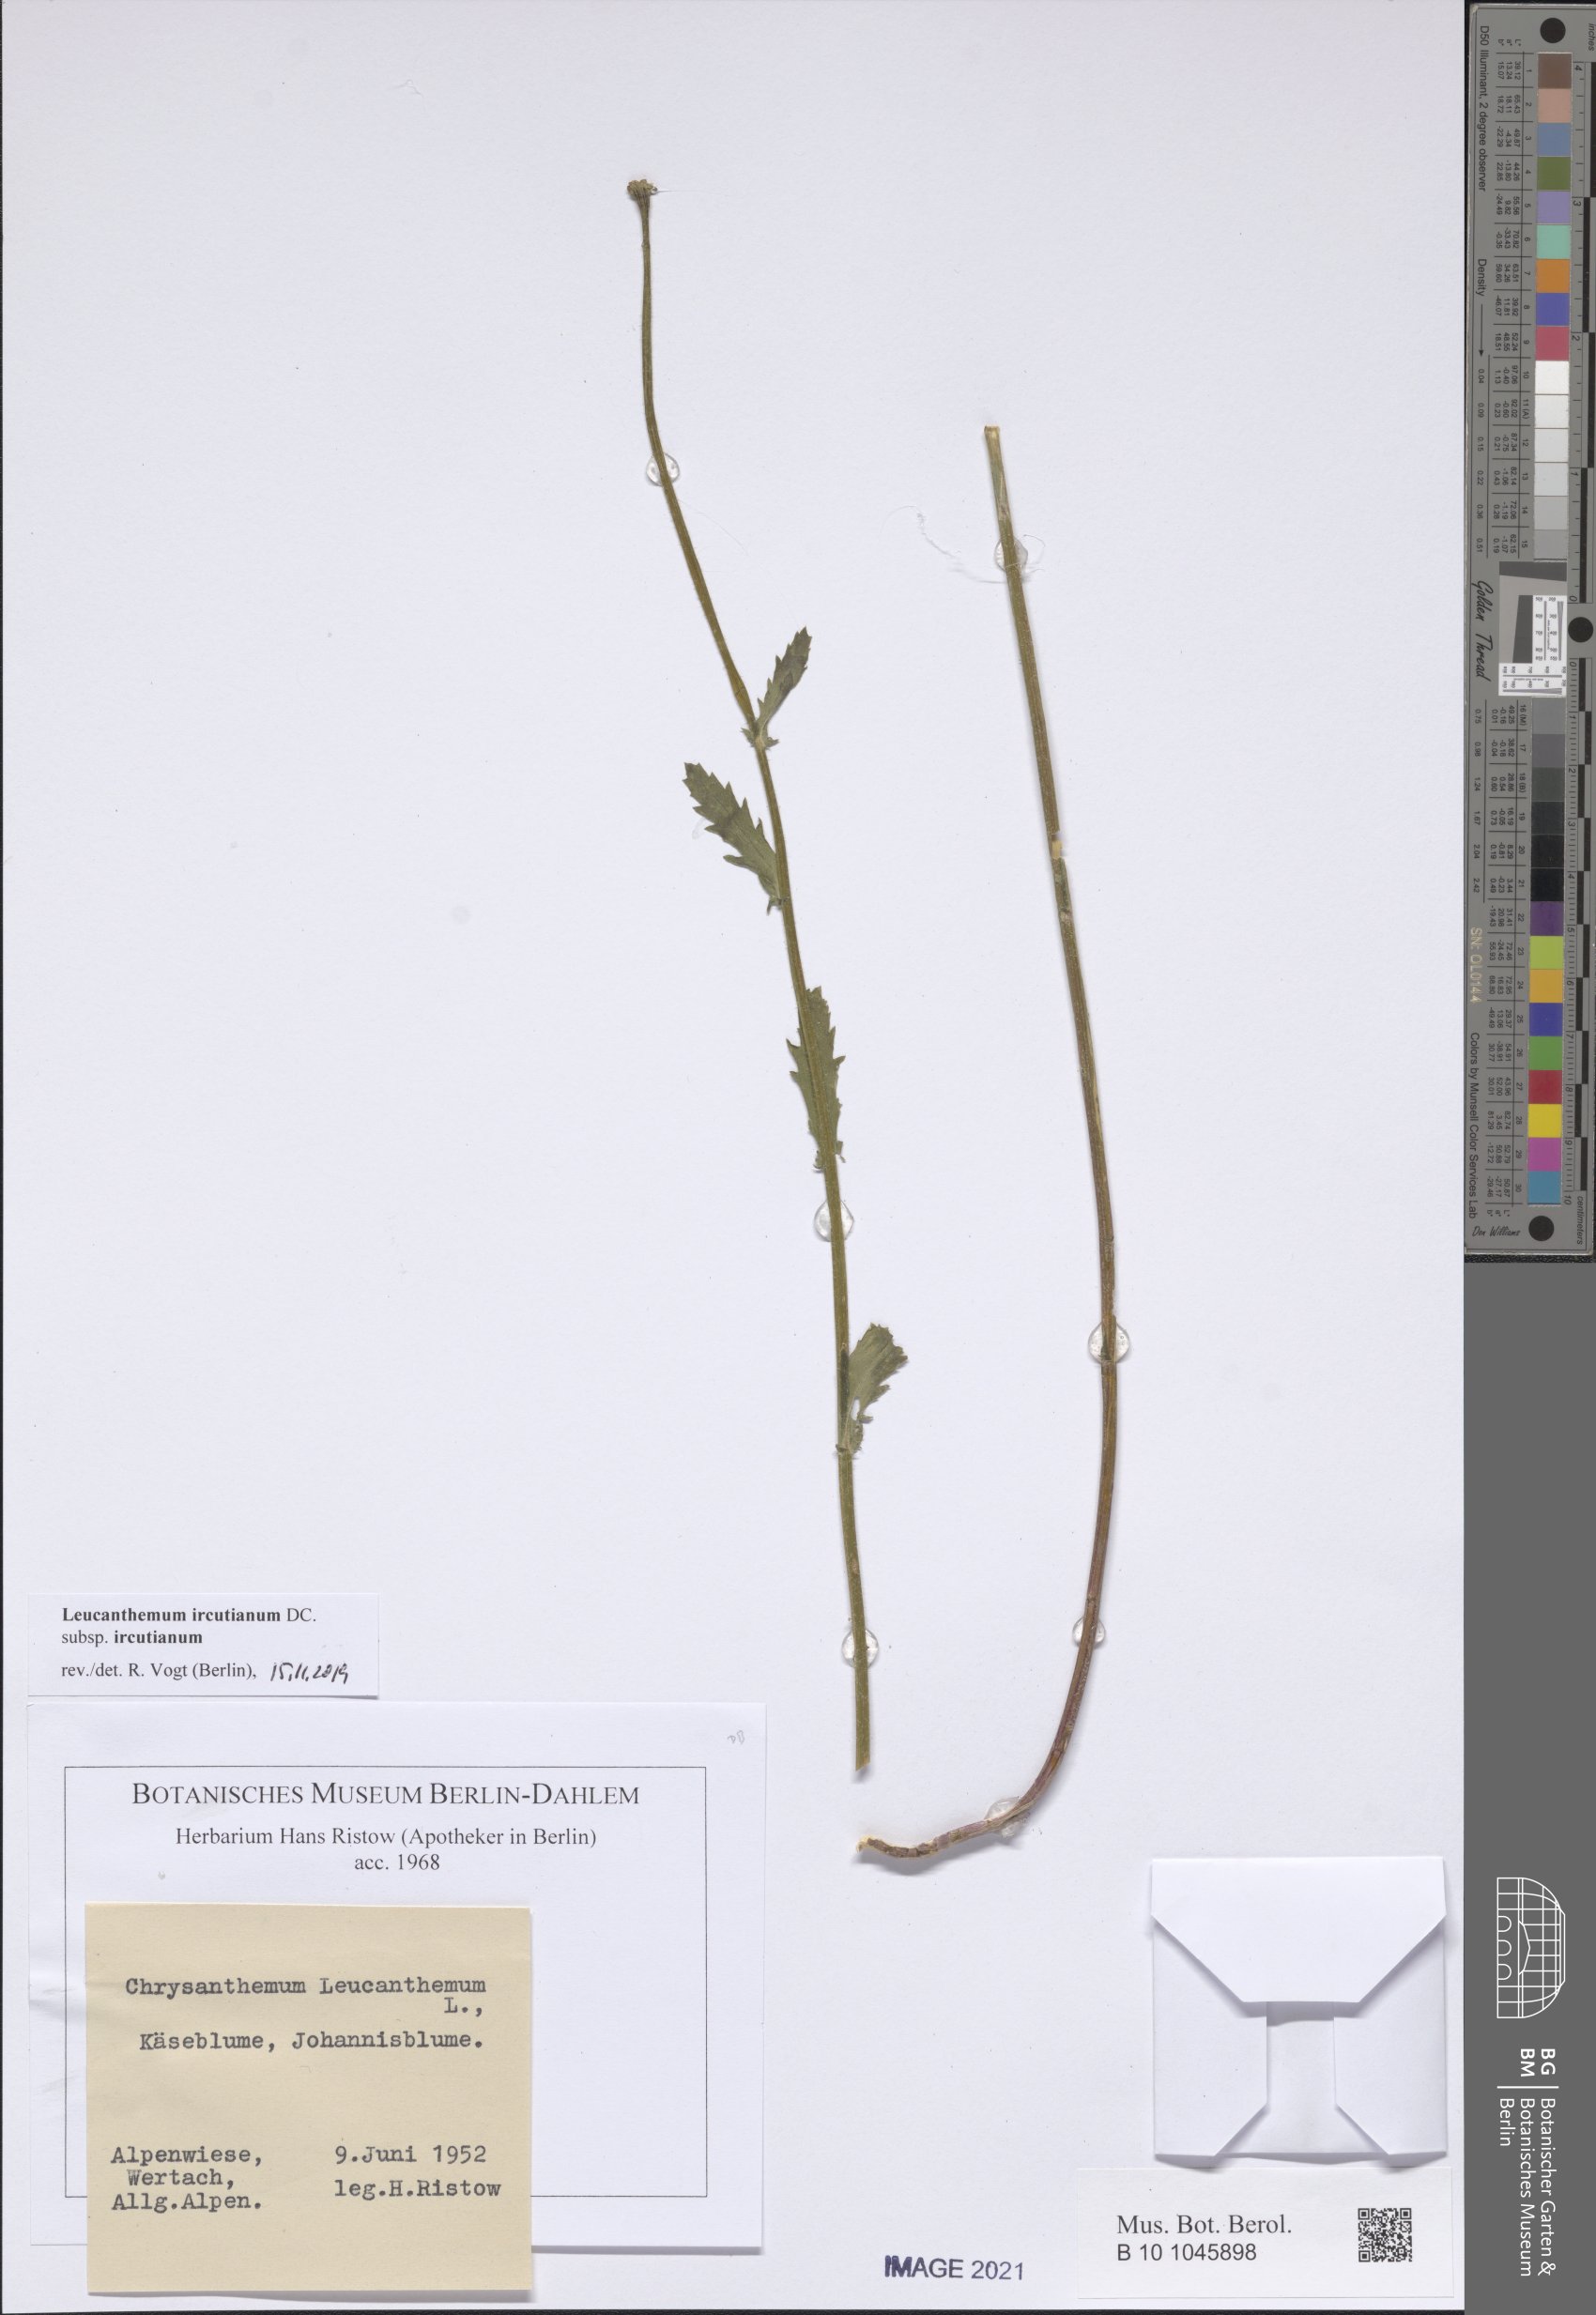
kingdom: Plantae
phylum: Tracheophyta
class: Magnoliopsida
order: Asterales
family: Asteraceae
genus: Leucanthemum
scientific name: Leucanthemum ircutianum
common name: Daisy
